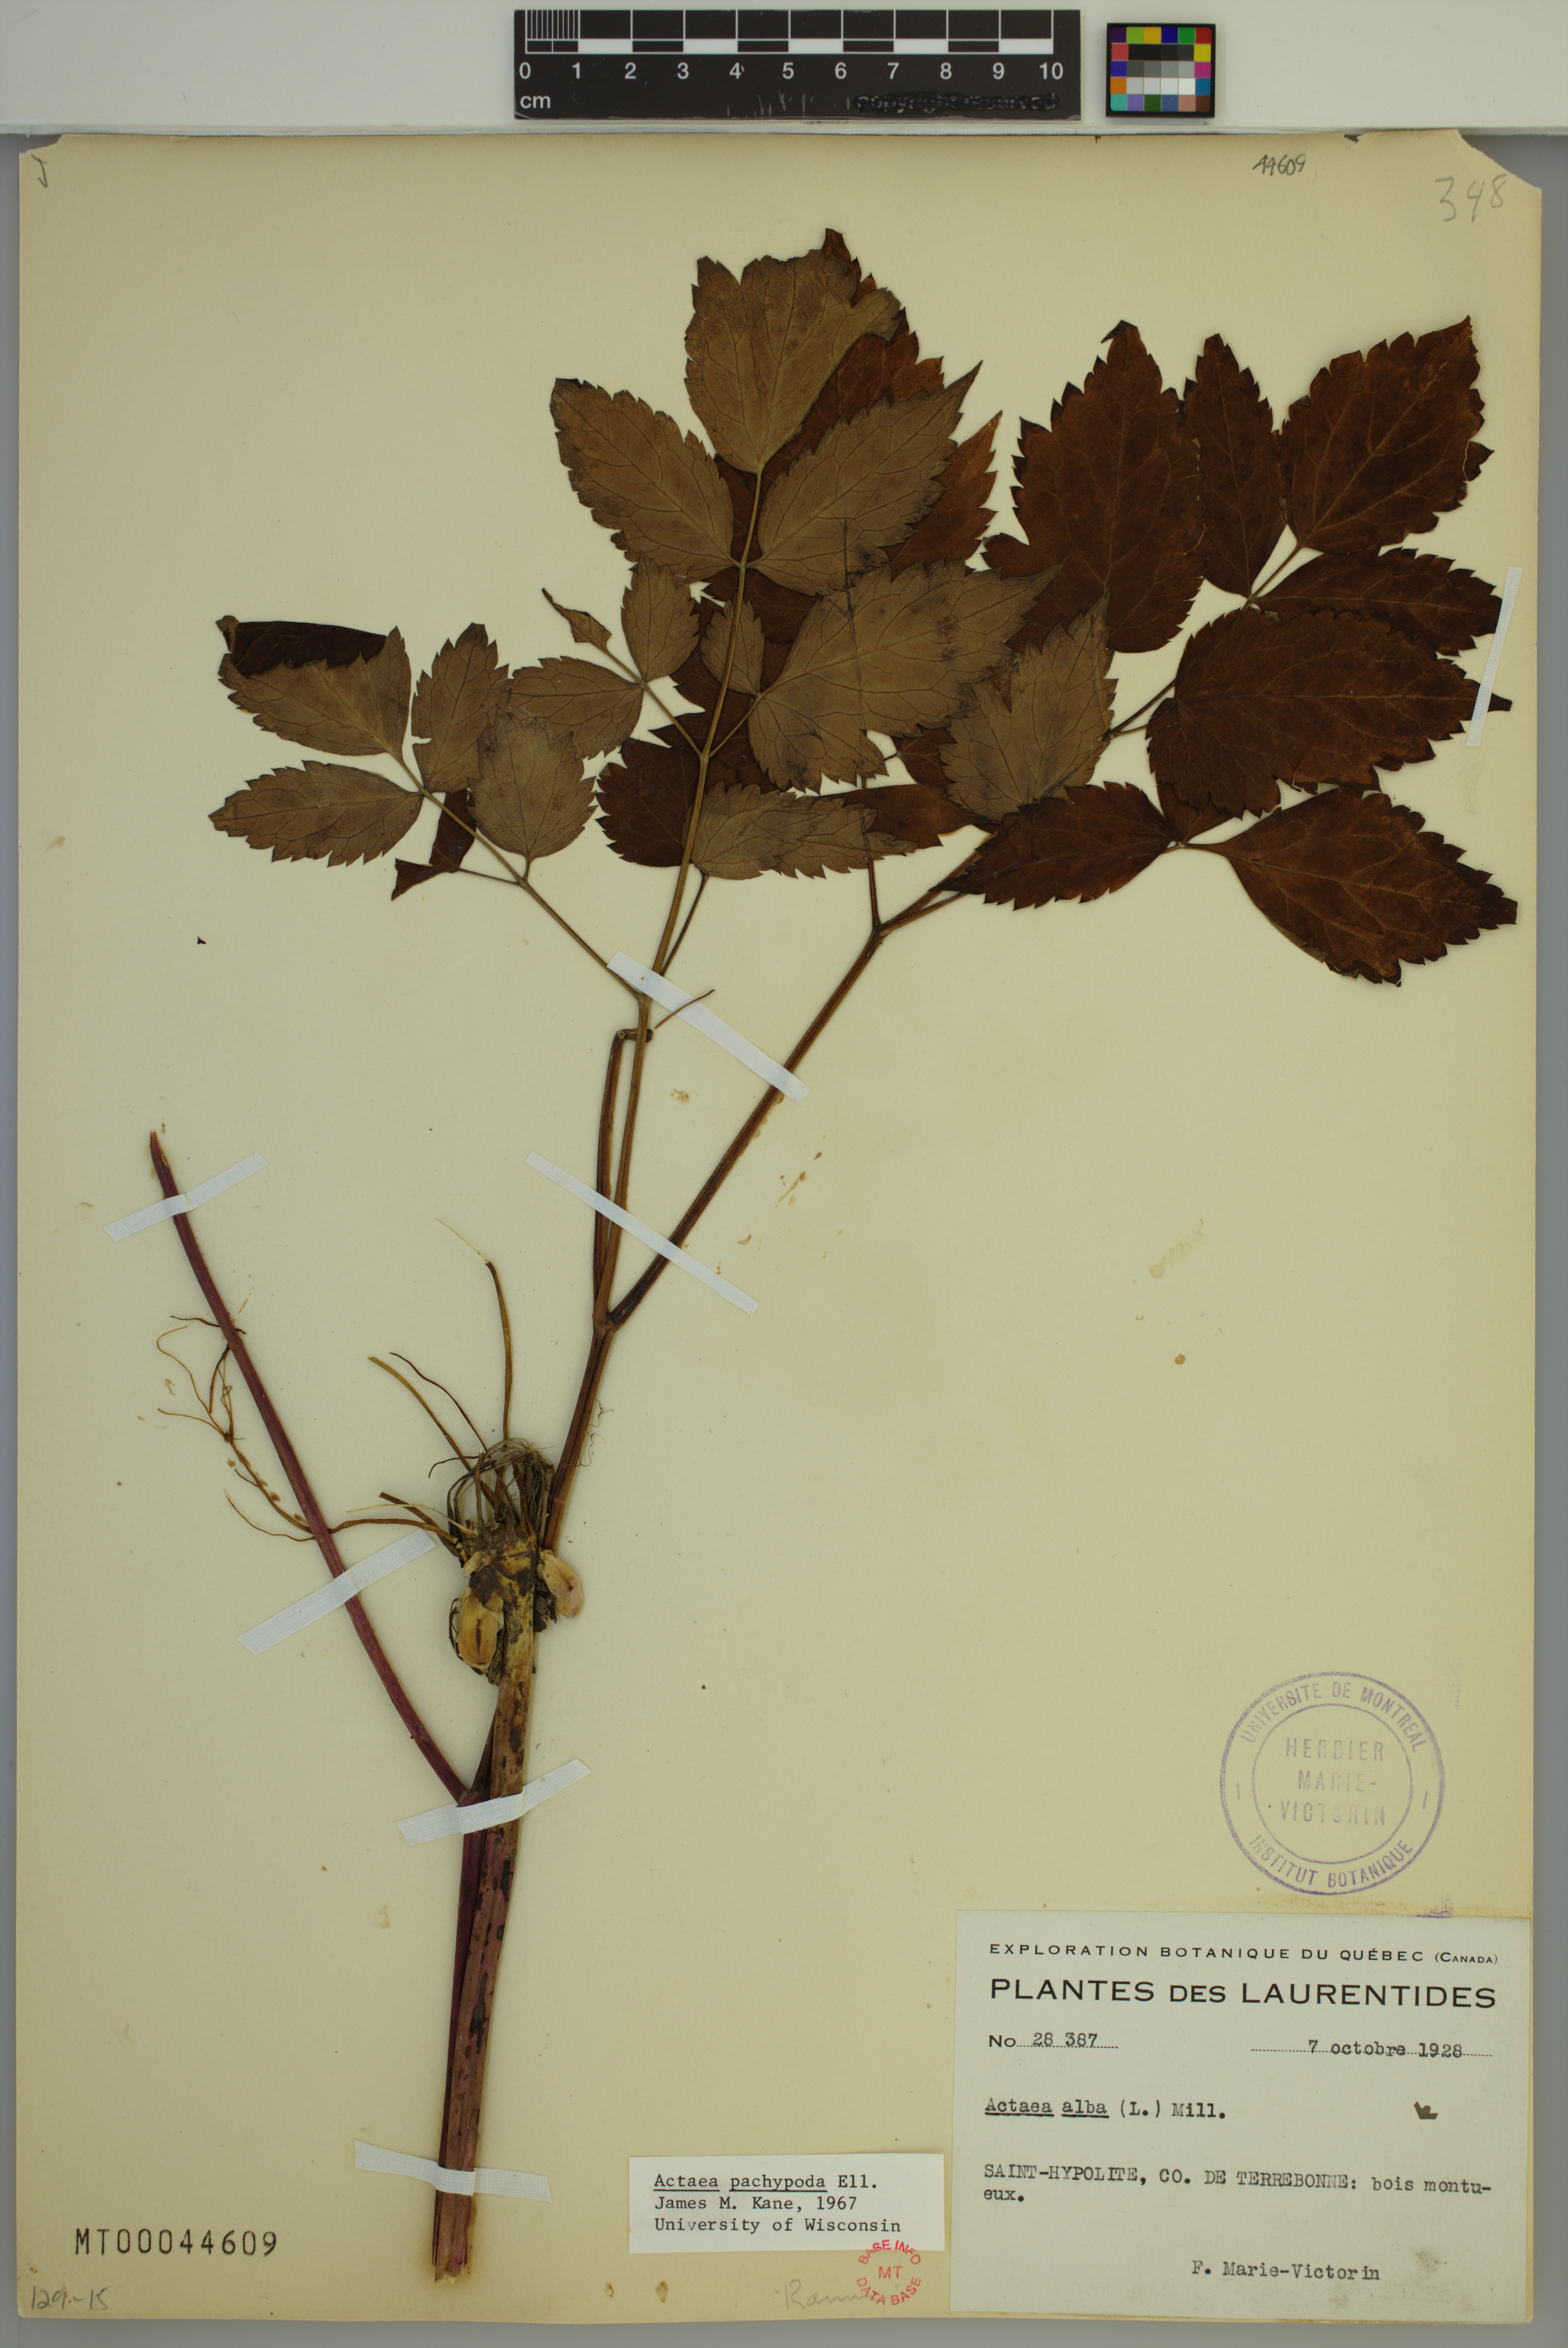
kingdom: Plantae
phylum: Tracheophyta
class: Magnoliopsida
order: Ranunculales
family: Ranunculaceae
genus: Actaea
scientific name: Actaea pachypoda
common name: Doll's-eyes
